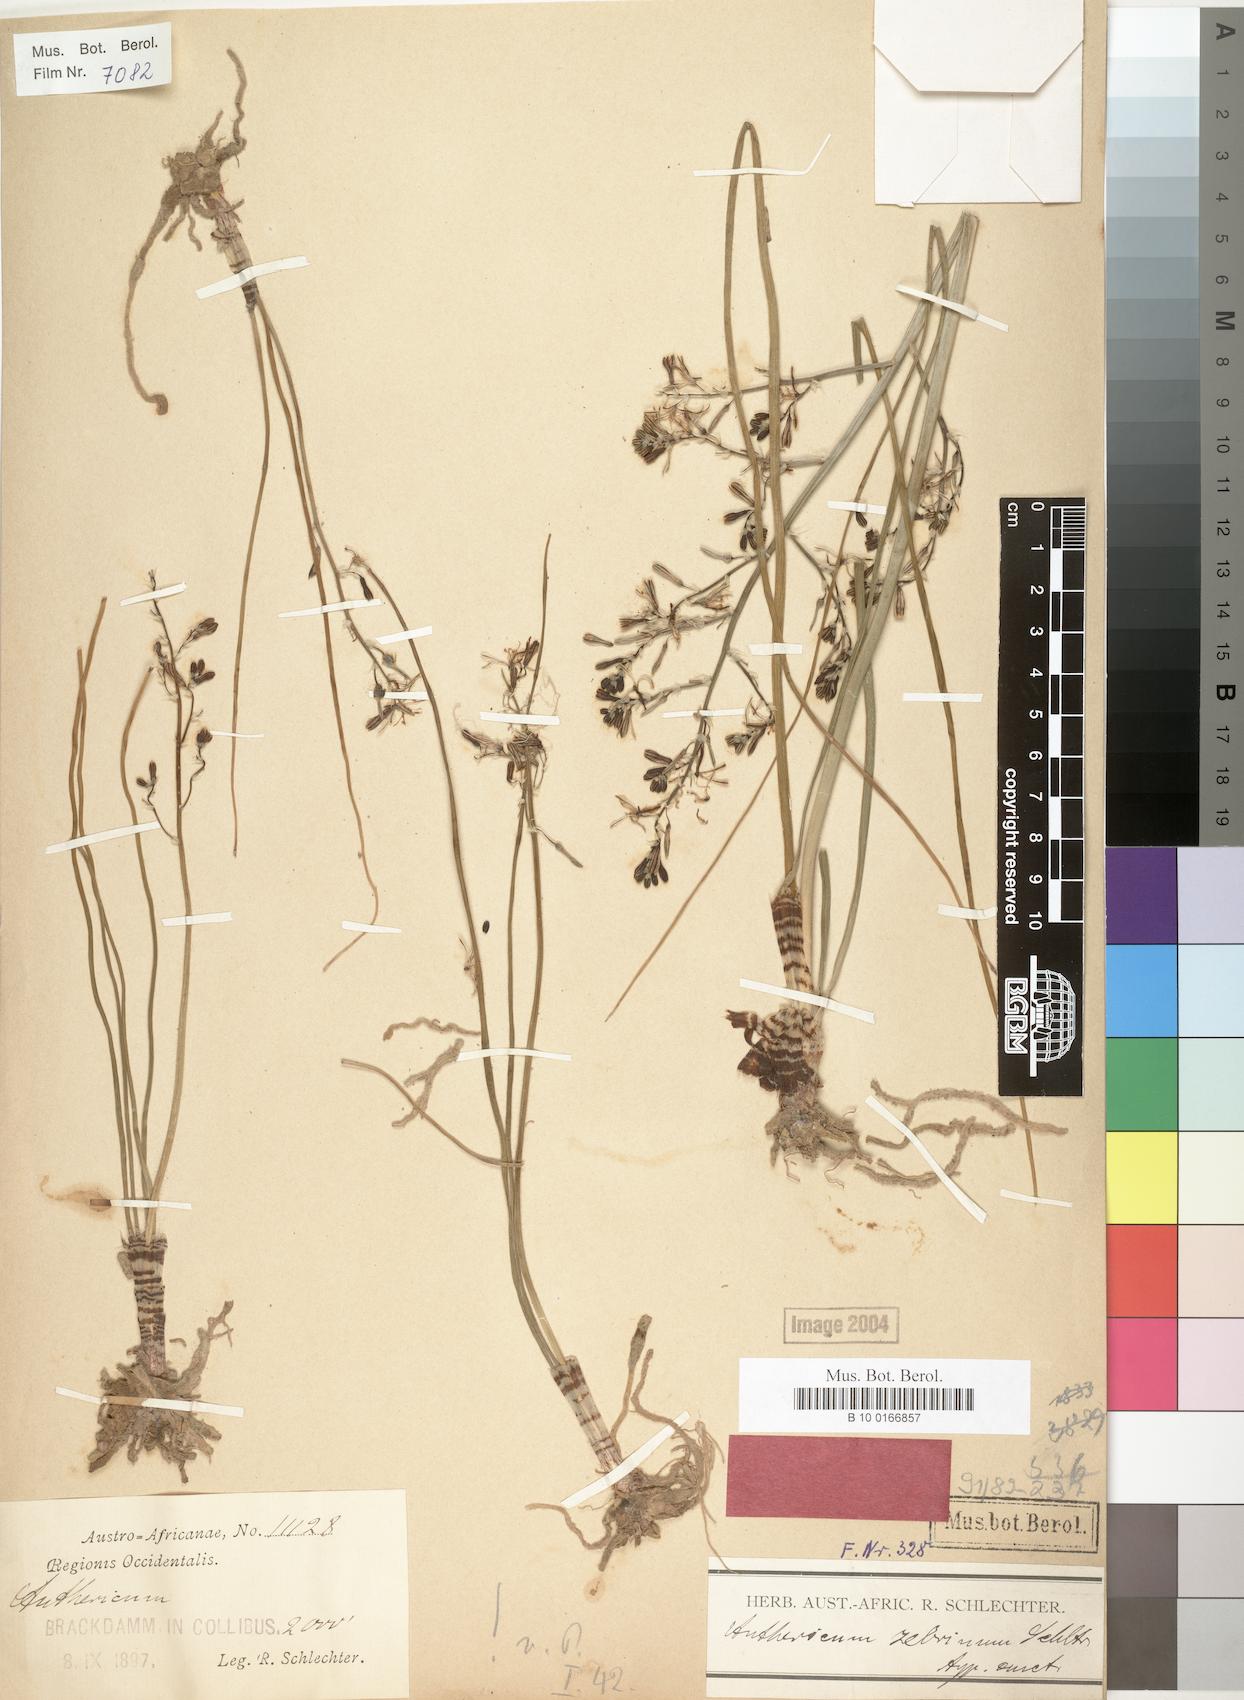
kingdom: Plantae
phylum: Tracheophyta
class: Liliopsida
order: Asparagales
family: Asphodelaceae
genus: Trachyandra
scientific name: Trachyandra zebrina
